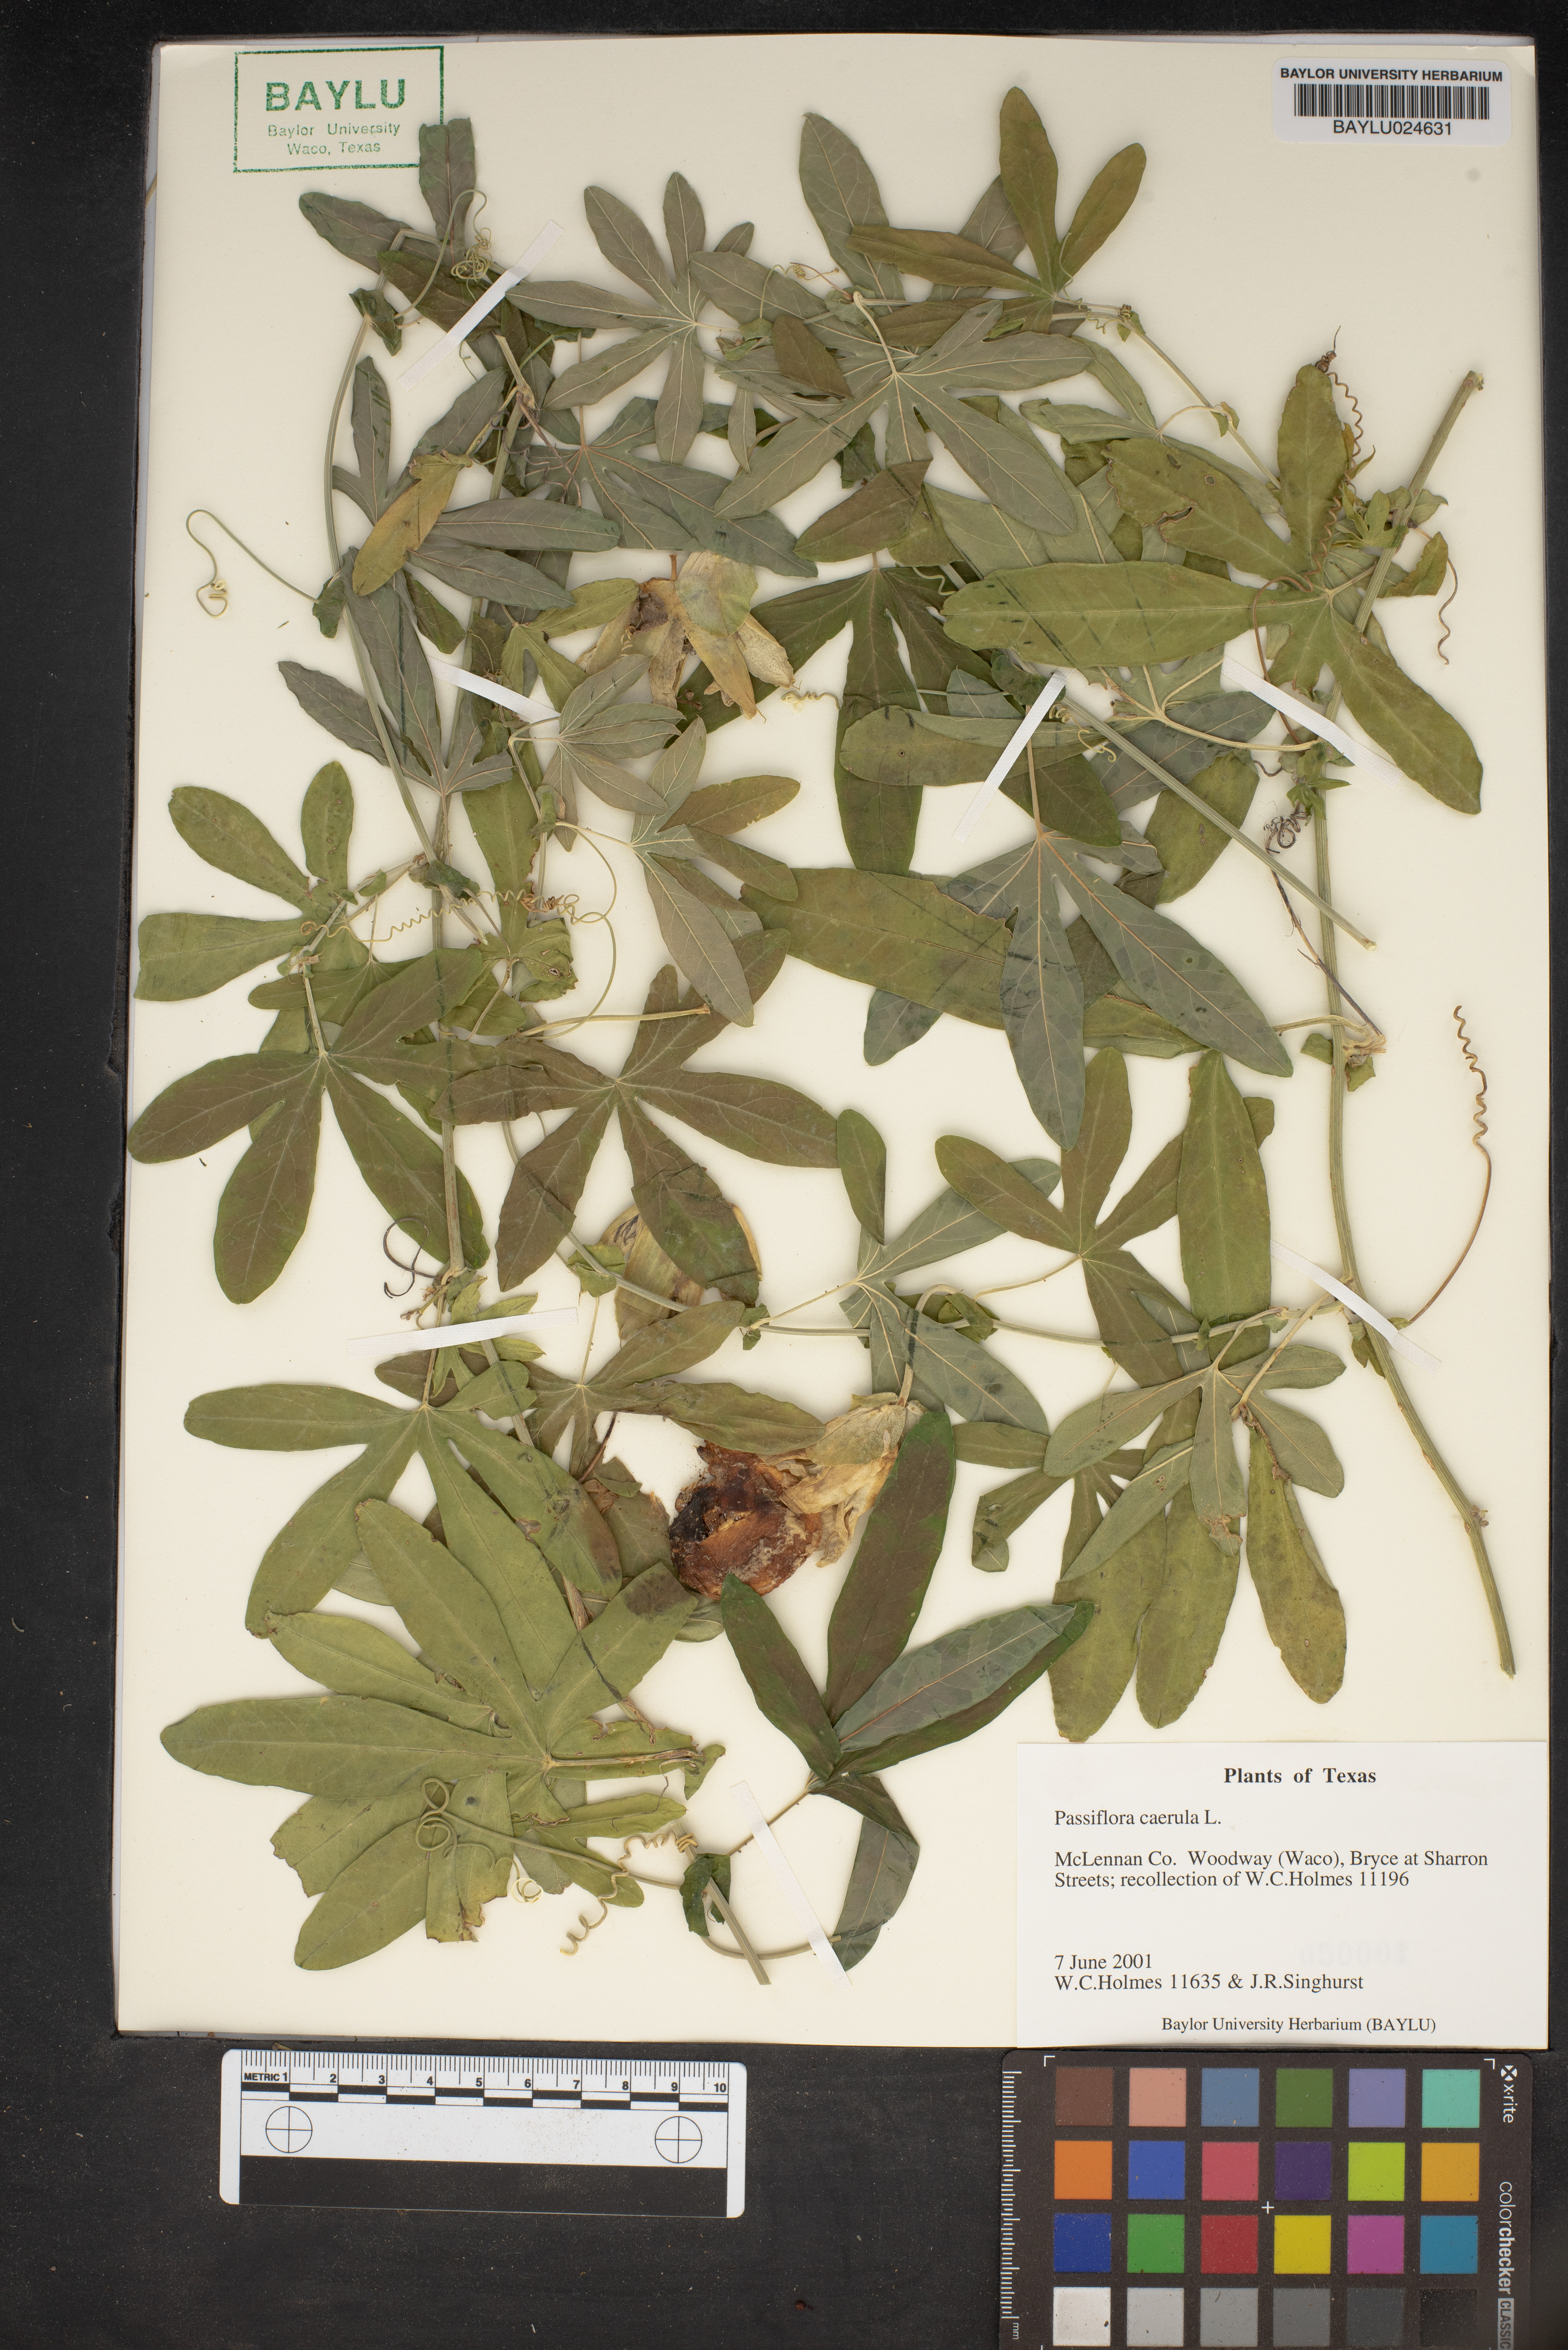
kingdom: Plantae
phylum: Tracheophyta
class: Magnoliopsida
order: Malpighiales
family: Passifloraceae
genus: Passiflora
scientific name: Passiflora caerulea
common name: Blue passionflower
